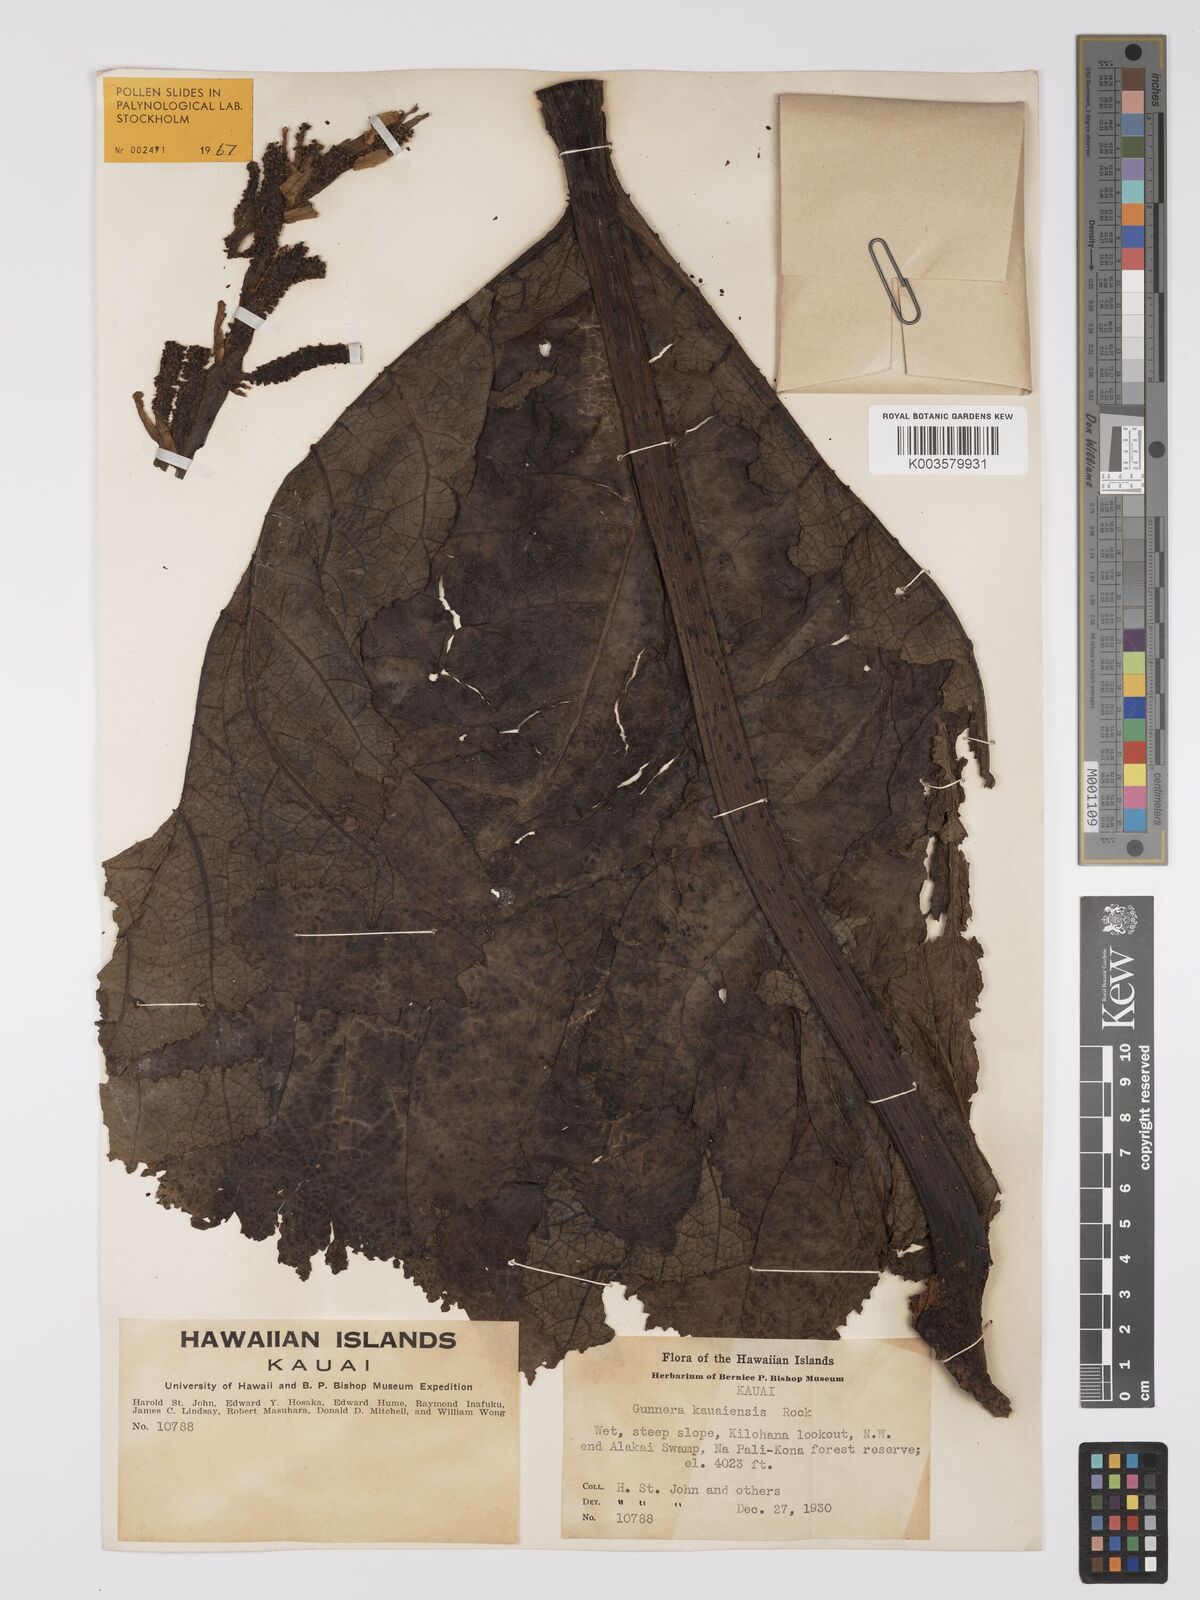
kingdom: Plantae
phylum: Tracheophyta
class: Magnoliopsida
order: Gunnerales
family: Gunneraceae
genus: Gunnera
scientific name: Gunnera petaloidea
